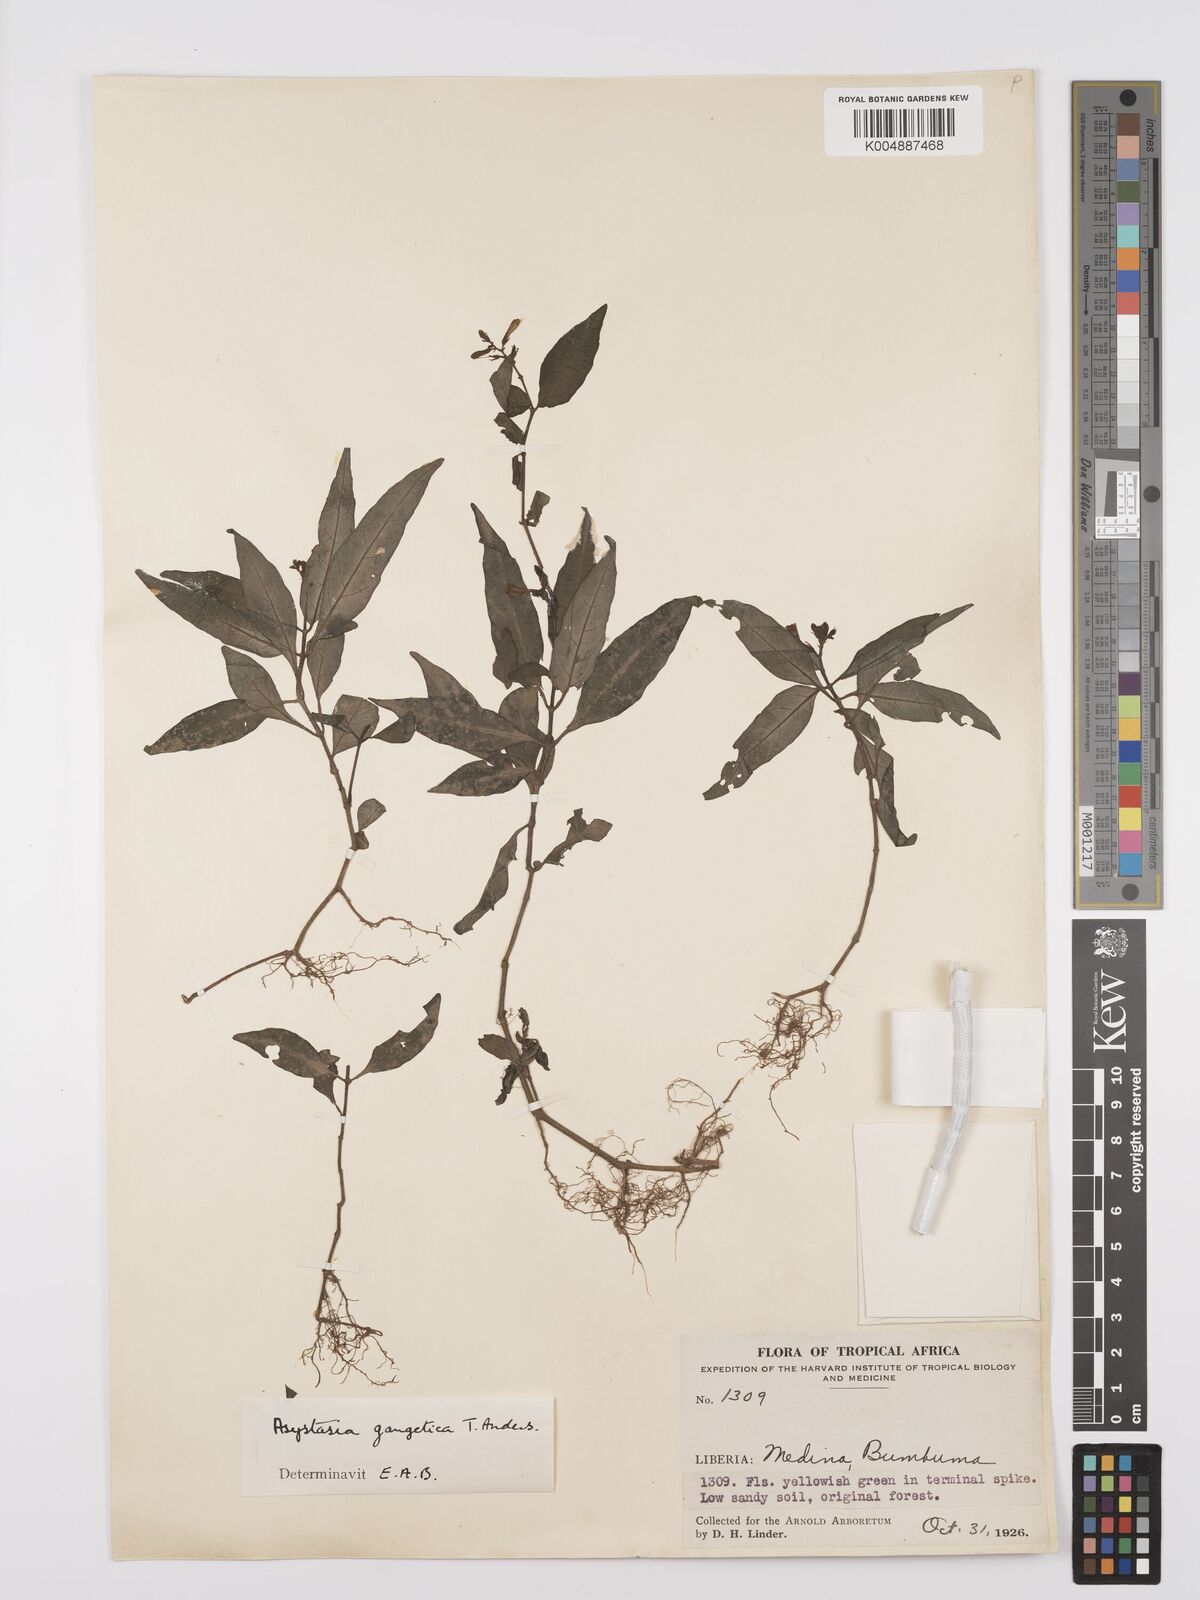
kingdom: Plantae
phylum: Tracheophyta
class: Magnoliopsida
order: Lamiales
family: Acanthaceae
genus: Asystasia
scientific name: Asystasia leptostachya
